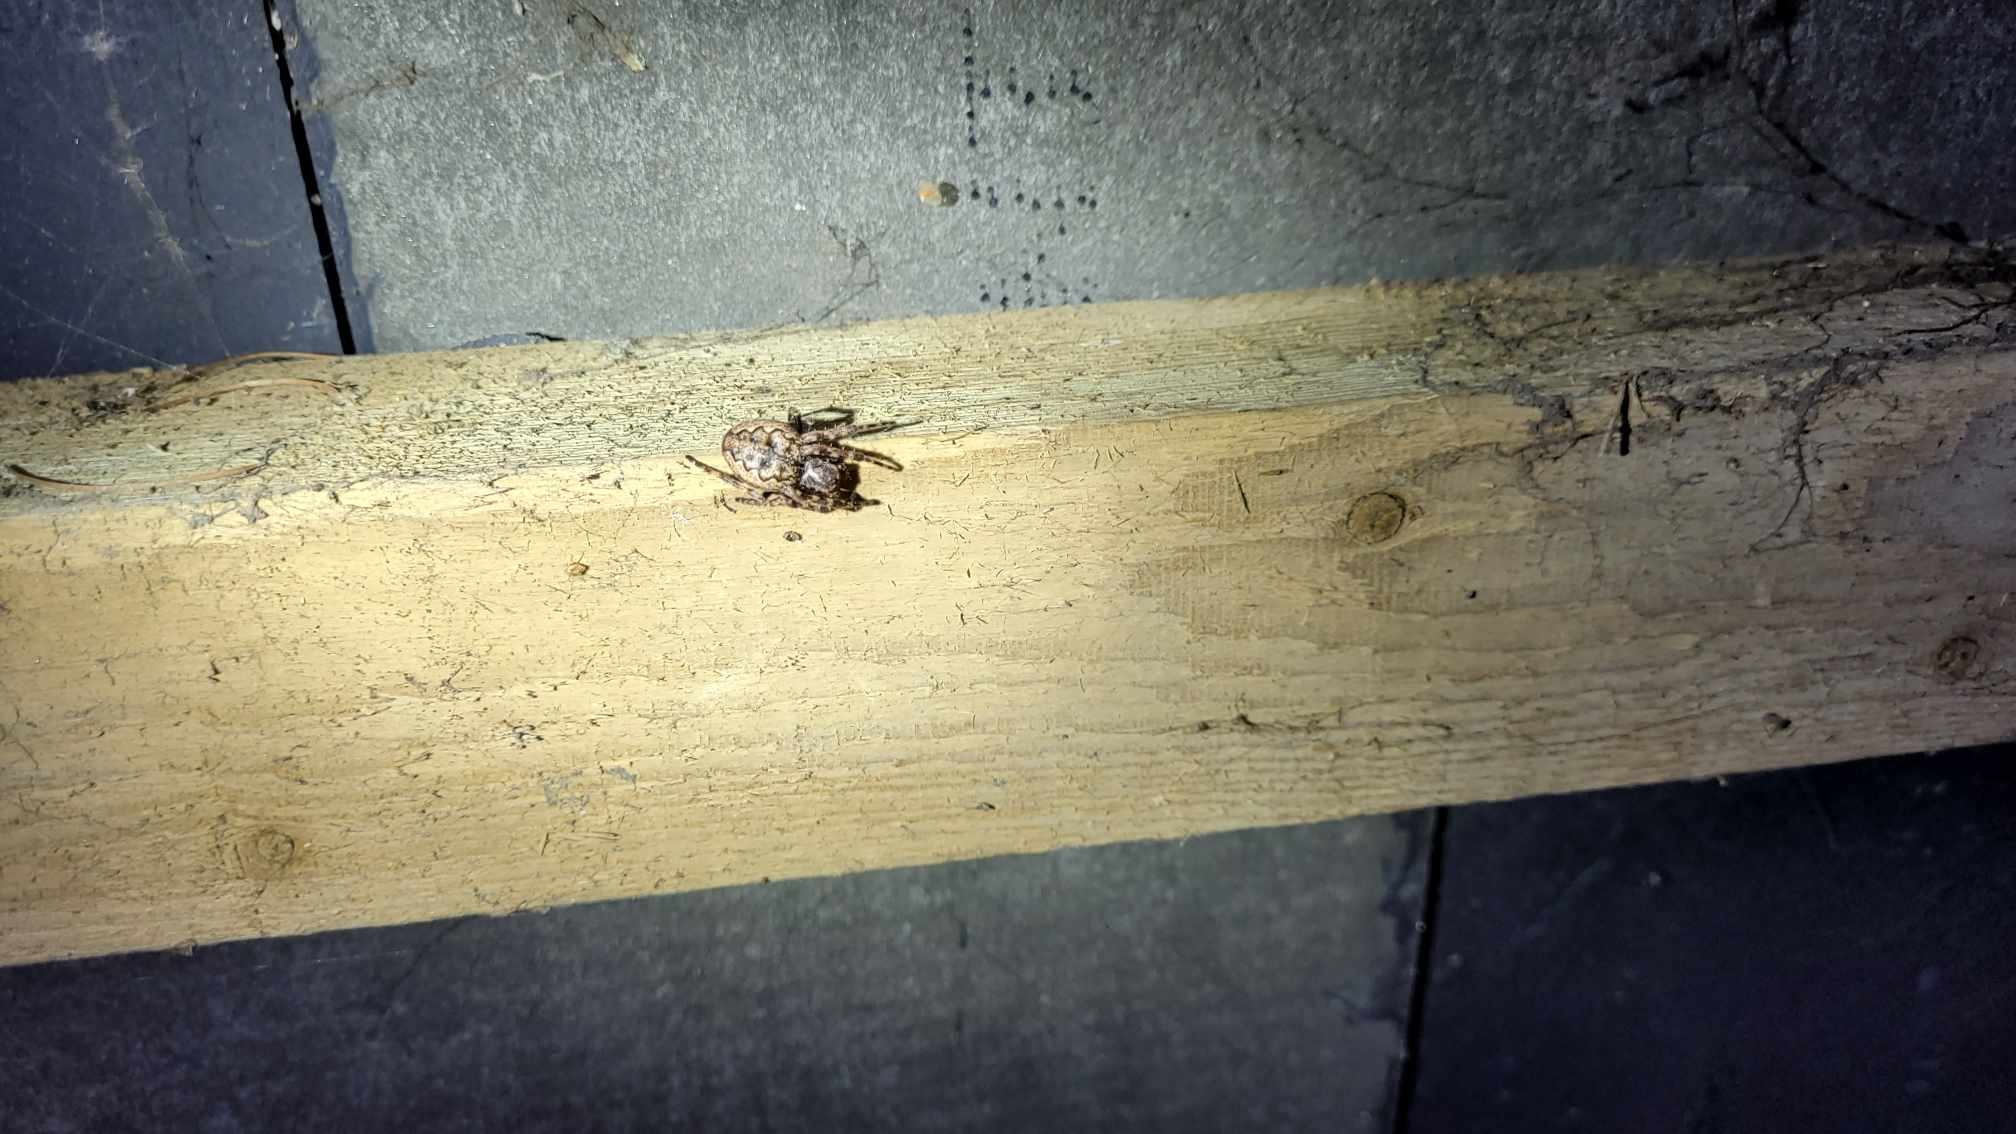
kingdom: Animalia
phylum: Arthropoda
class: Arachnida
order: Araneae
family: Araneidae
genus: Nuctenea
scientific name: Nuctenea umbratica
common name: Flad hjulspinder
